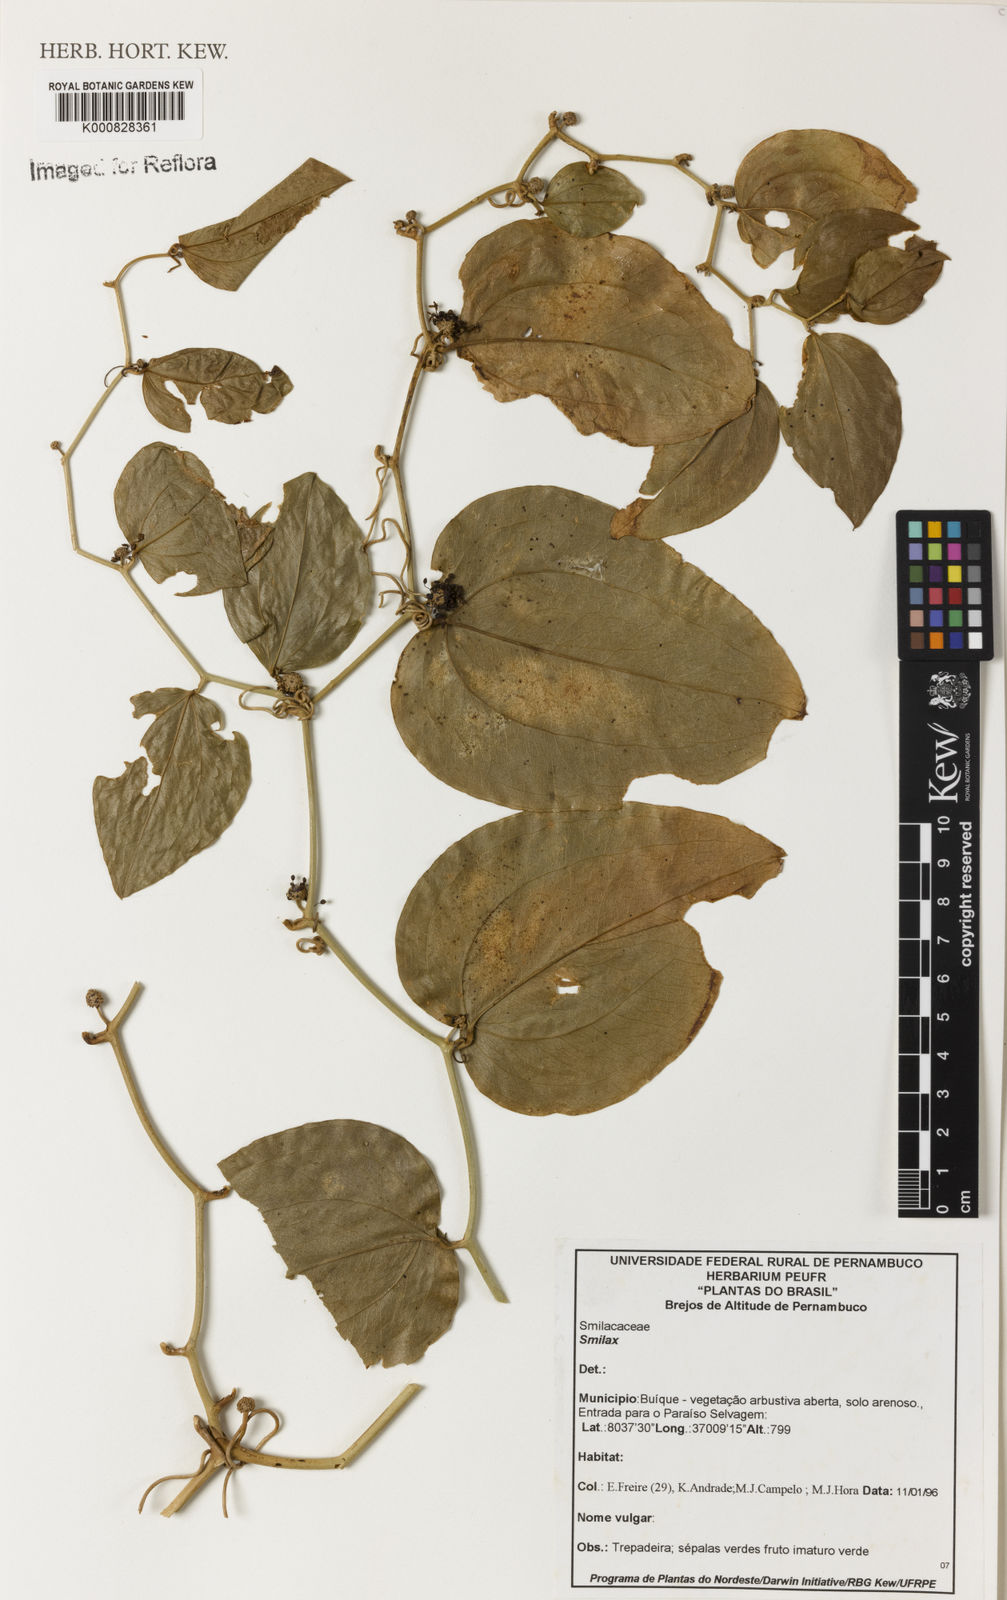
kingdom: Plantae
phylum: Tracheophyta
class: Liliopsida
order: Liliales
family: Smilacaceae
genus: Smilax
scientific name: Smilax
